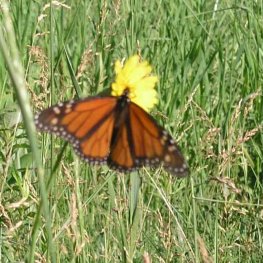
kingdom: Animalia
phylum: Arthropoda
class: Insecta
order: Lepidoptera
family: Nymphalidae
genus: Danaus
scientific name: Danaus plexippus
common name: Monarch
